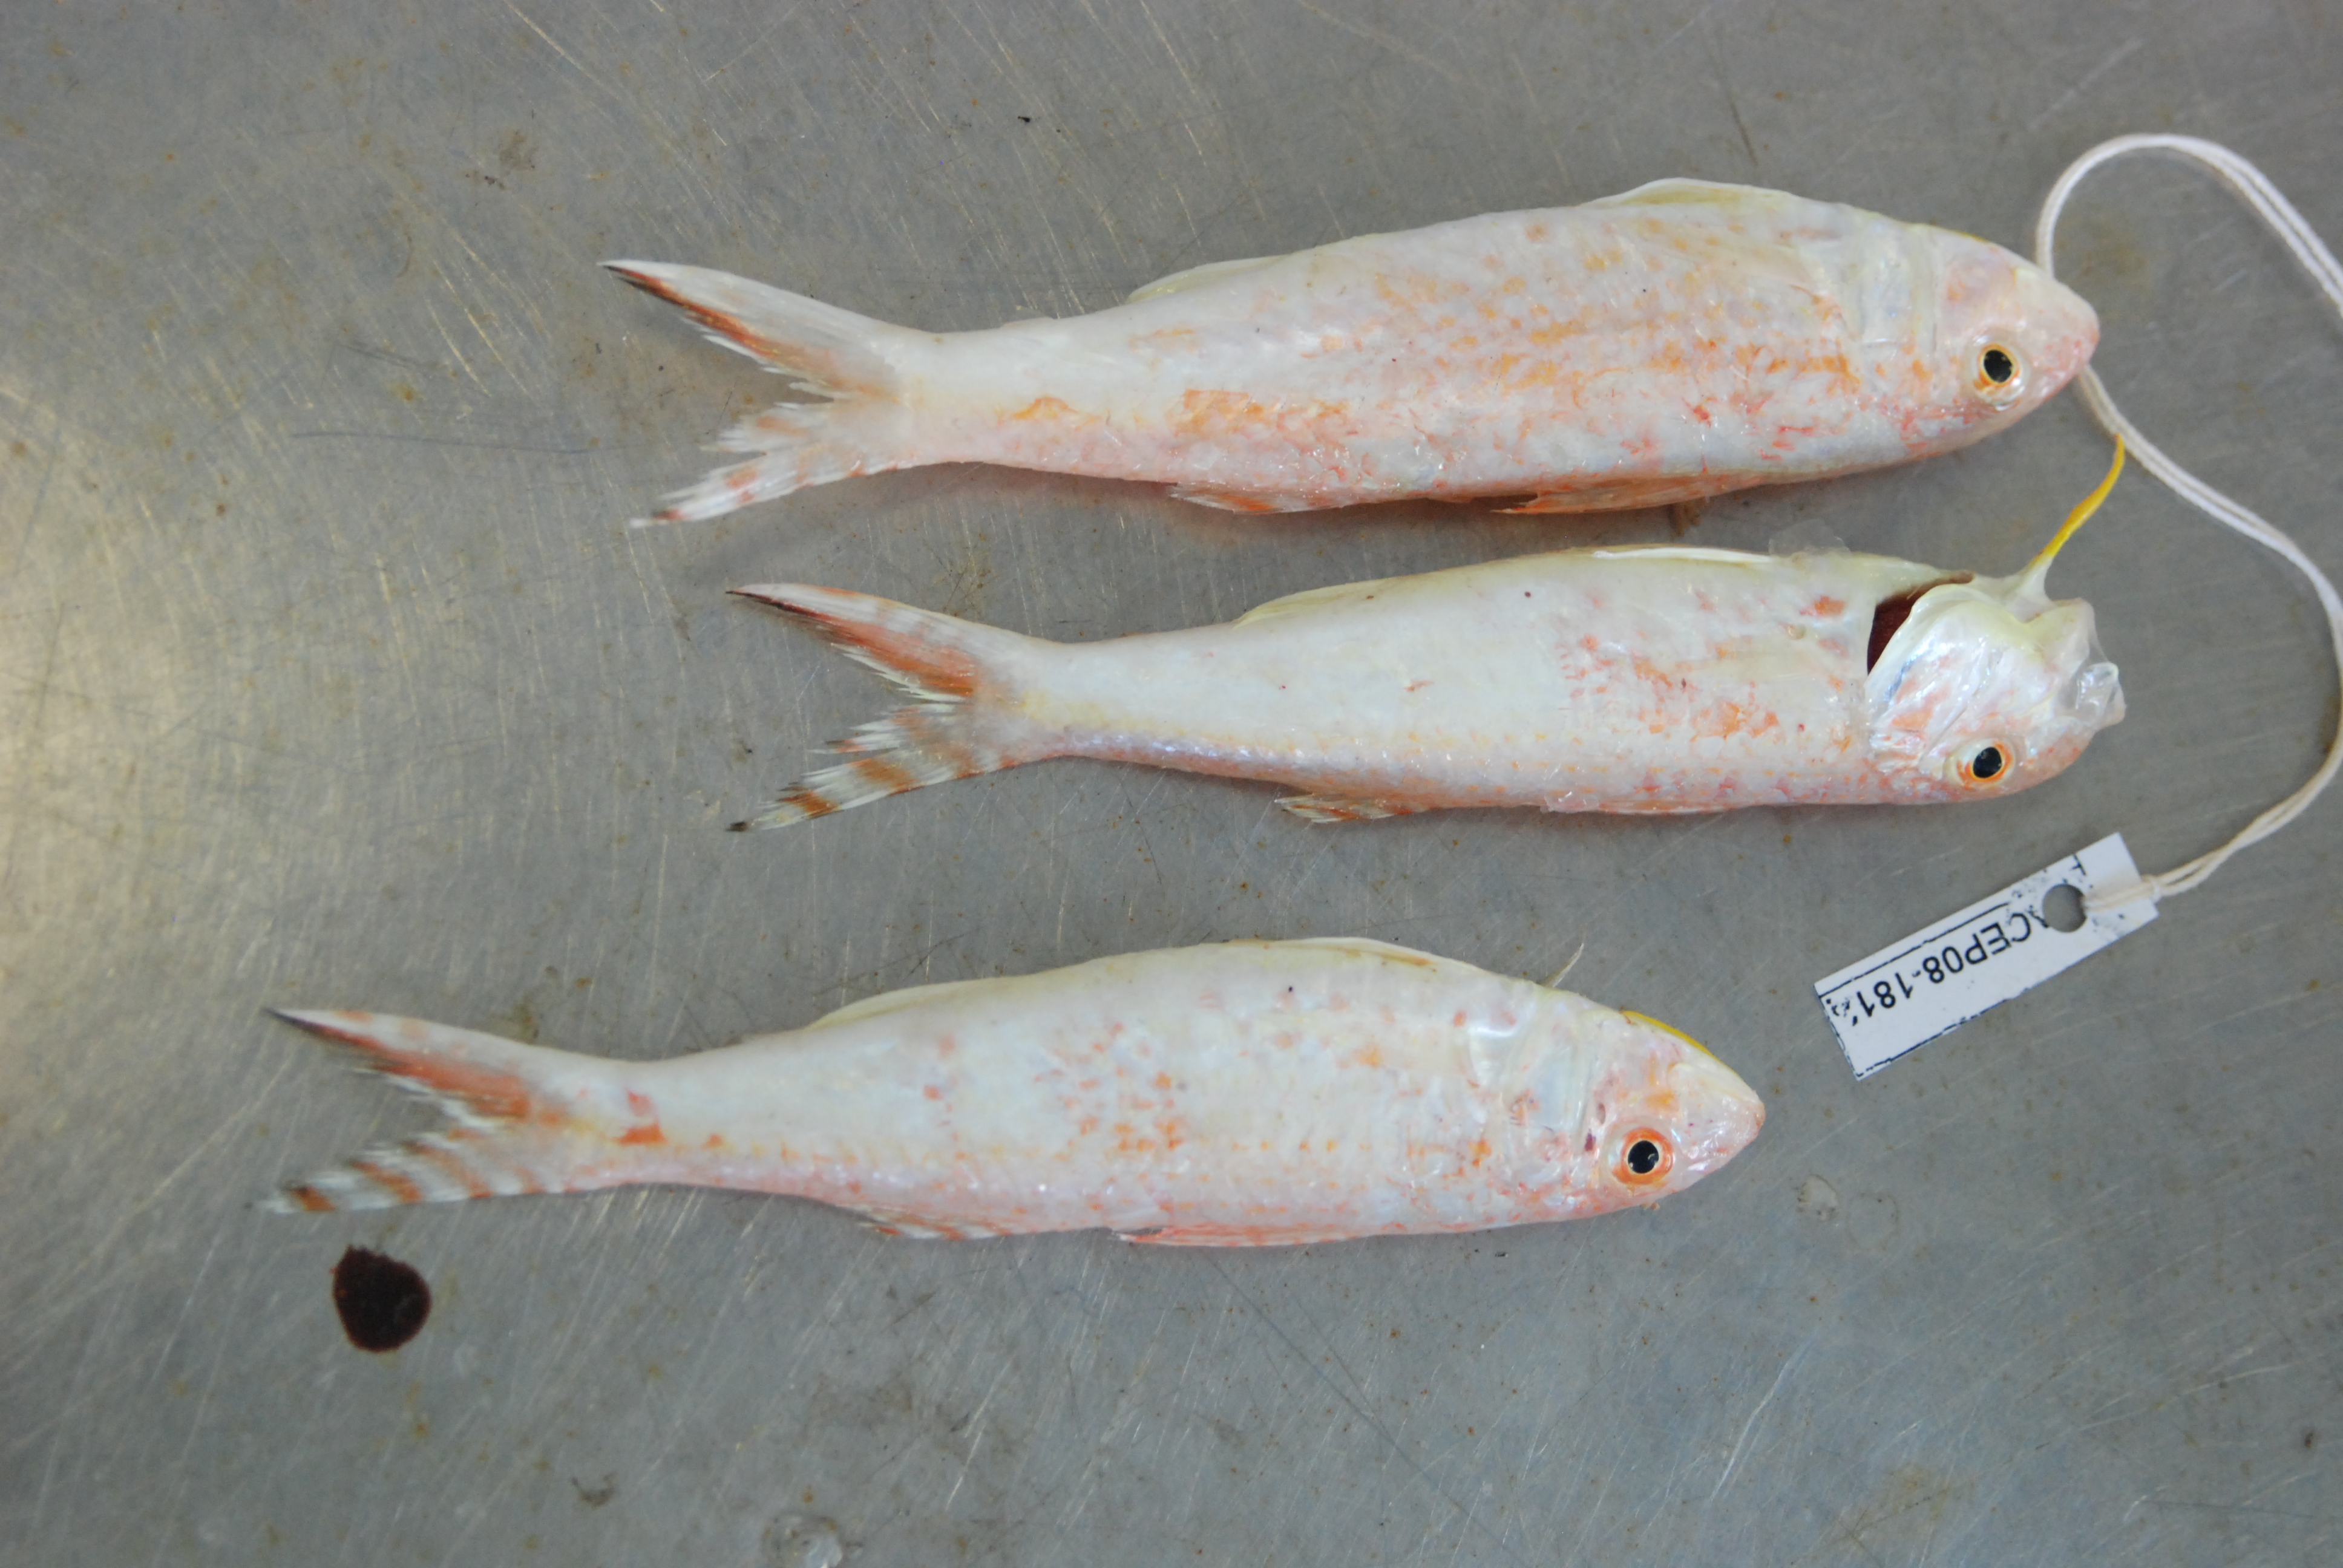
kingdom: Animalia
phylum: Chordata
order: Perciformes
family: Mullidae
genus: Upeneus
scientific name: Upeneus guttatus
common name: Spotted goatfish
